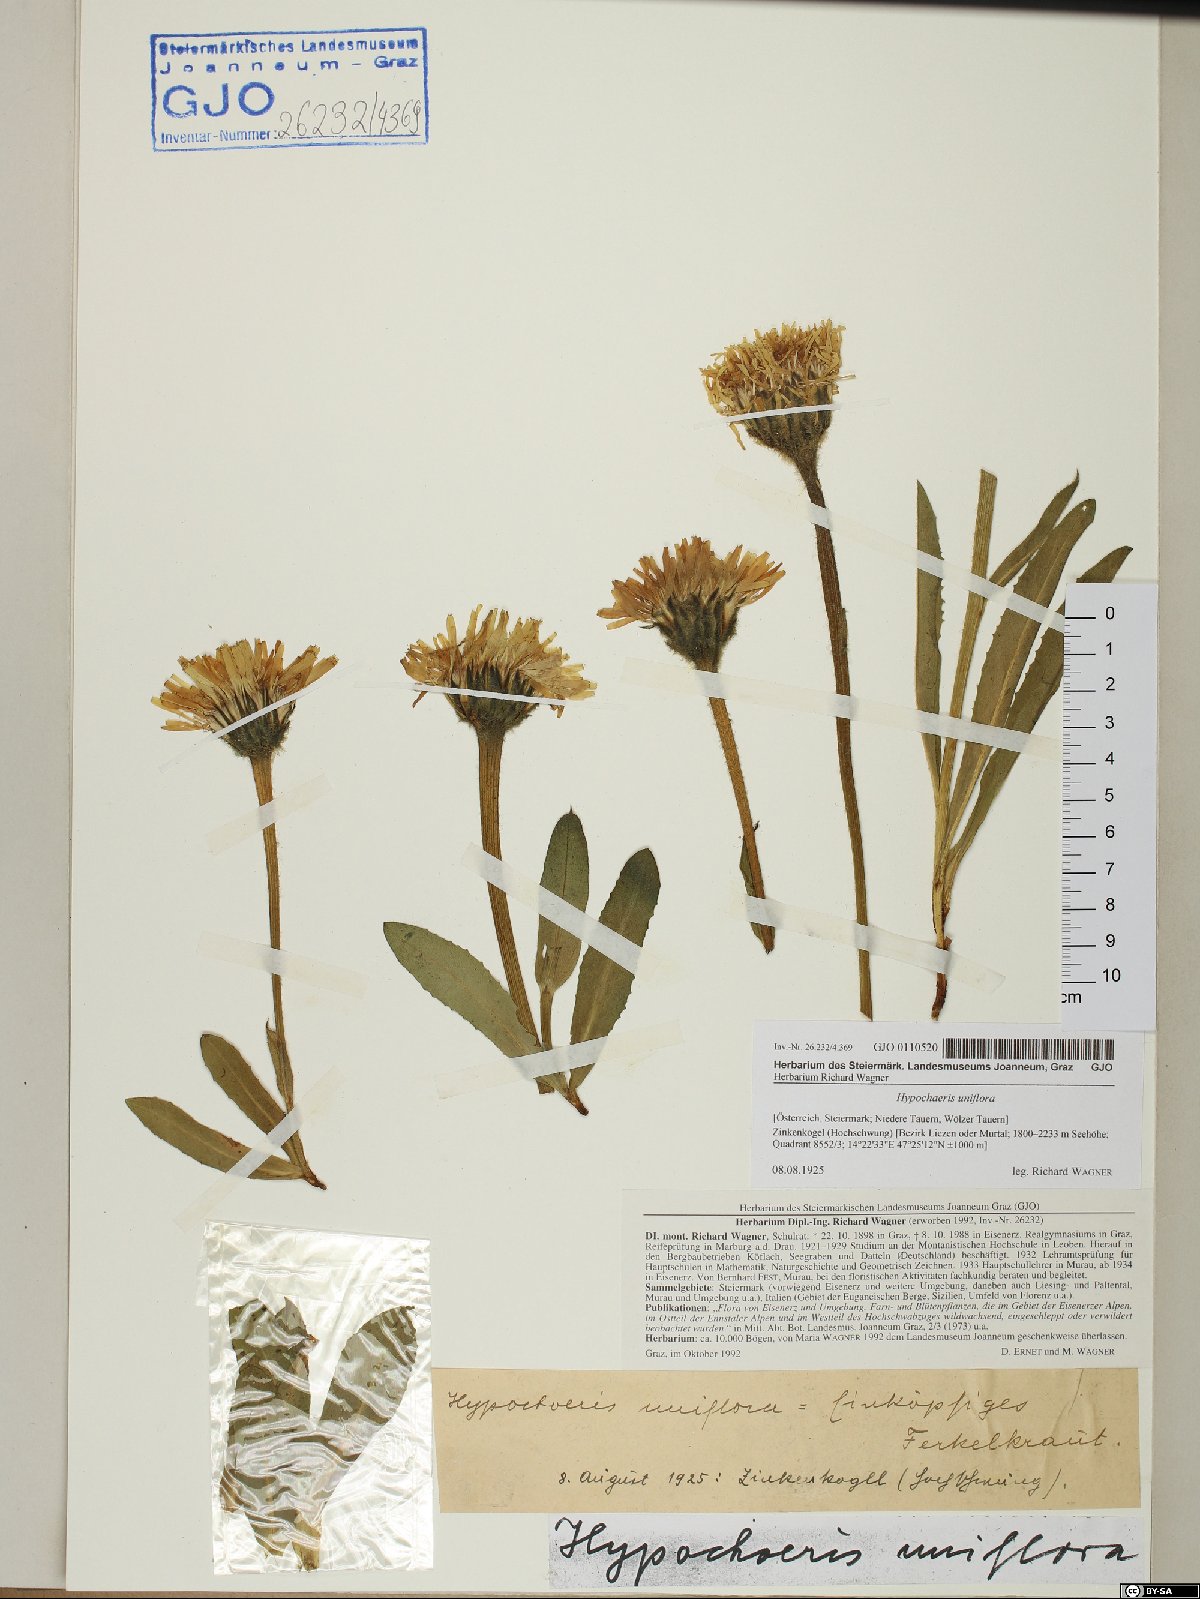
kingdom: Plantae
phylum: Tracheophyta
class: Magnoliopsida
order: Asterales
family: Asteraceae
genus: Trommsdorffia
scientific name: Trommsdorffia uniflora
